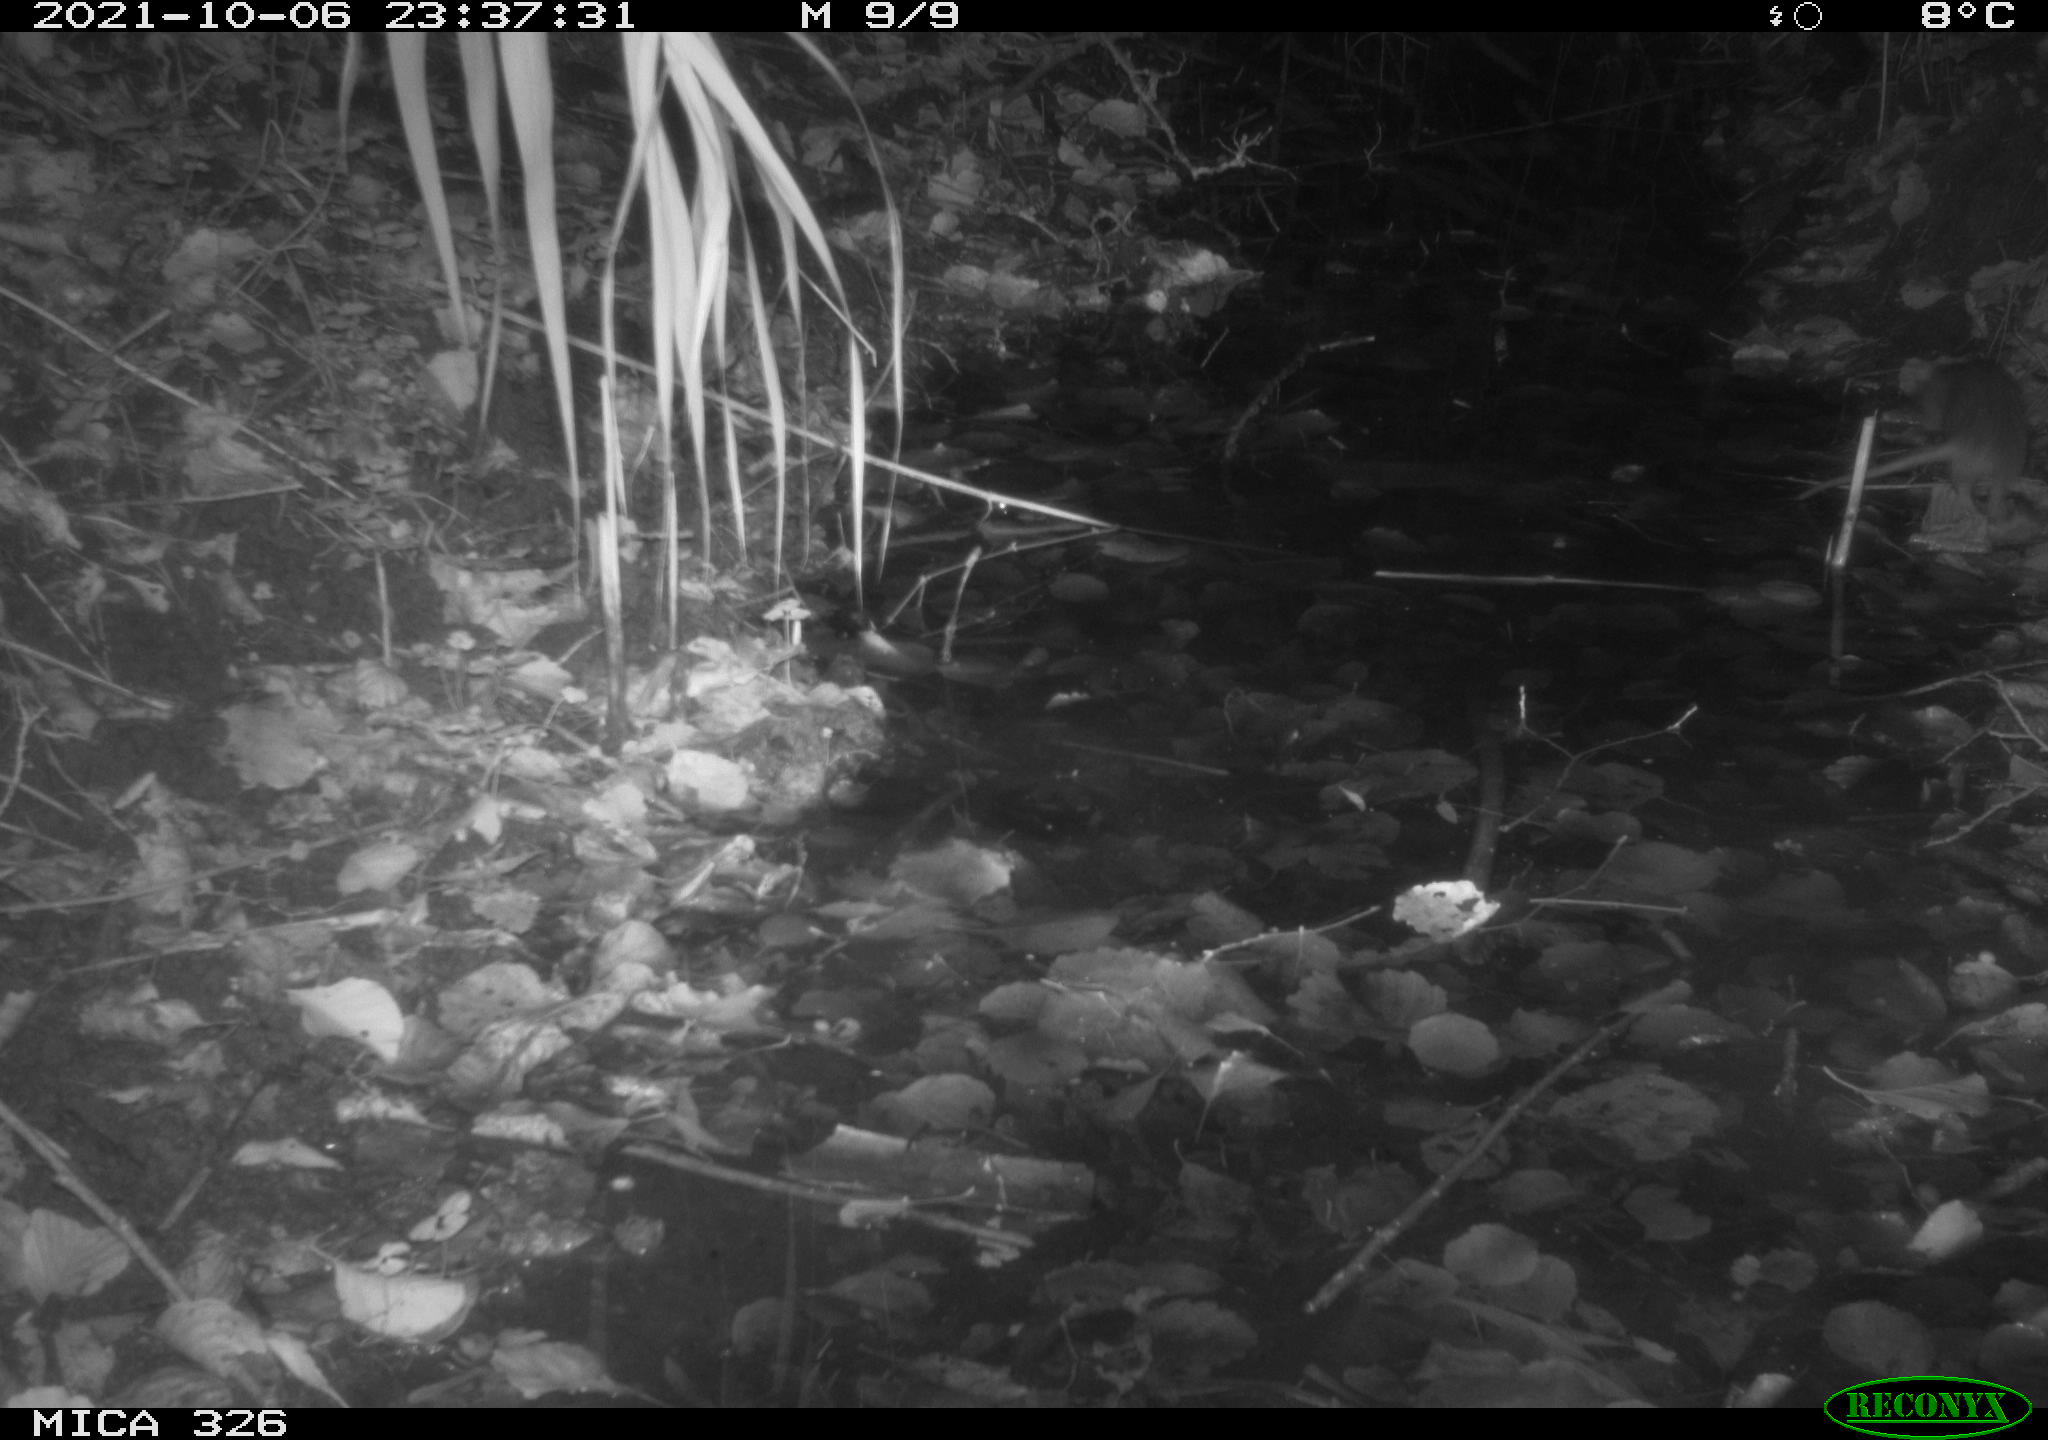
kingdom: Animalia
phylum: Chordata
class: Mammalia
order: Rodentia
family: Muridae
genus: Rattus
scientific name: Rattus norvegicus
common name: Brown rat
